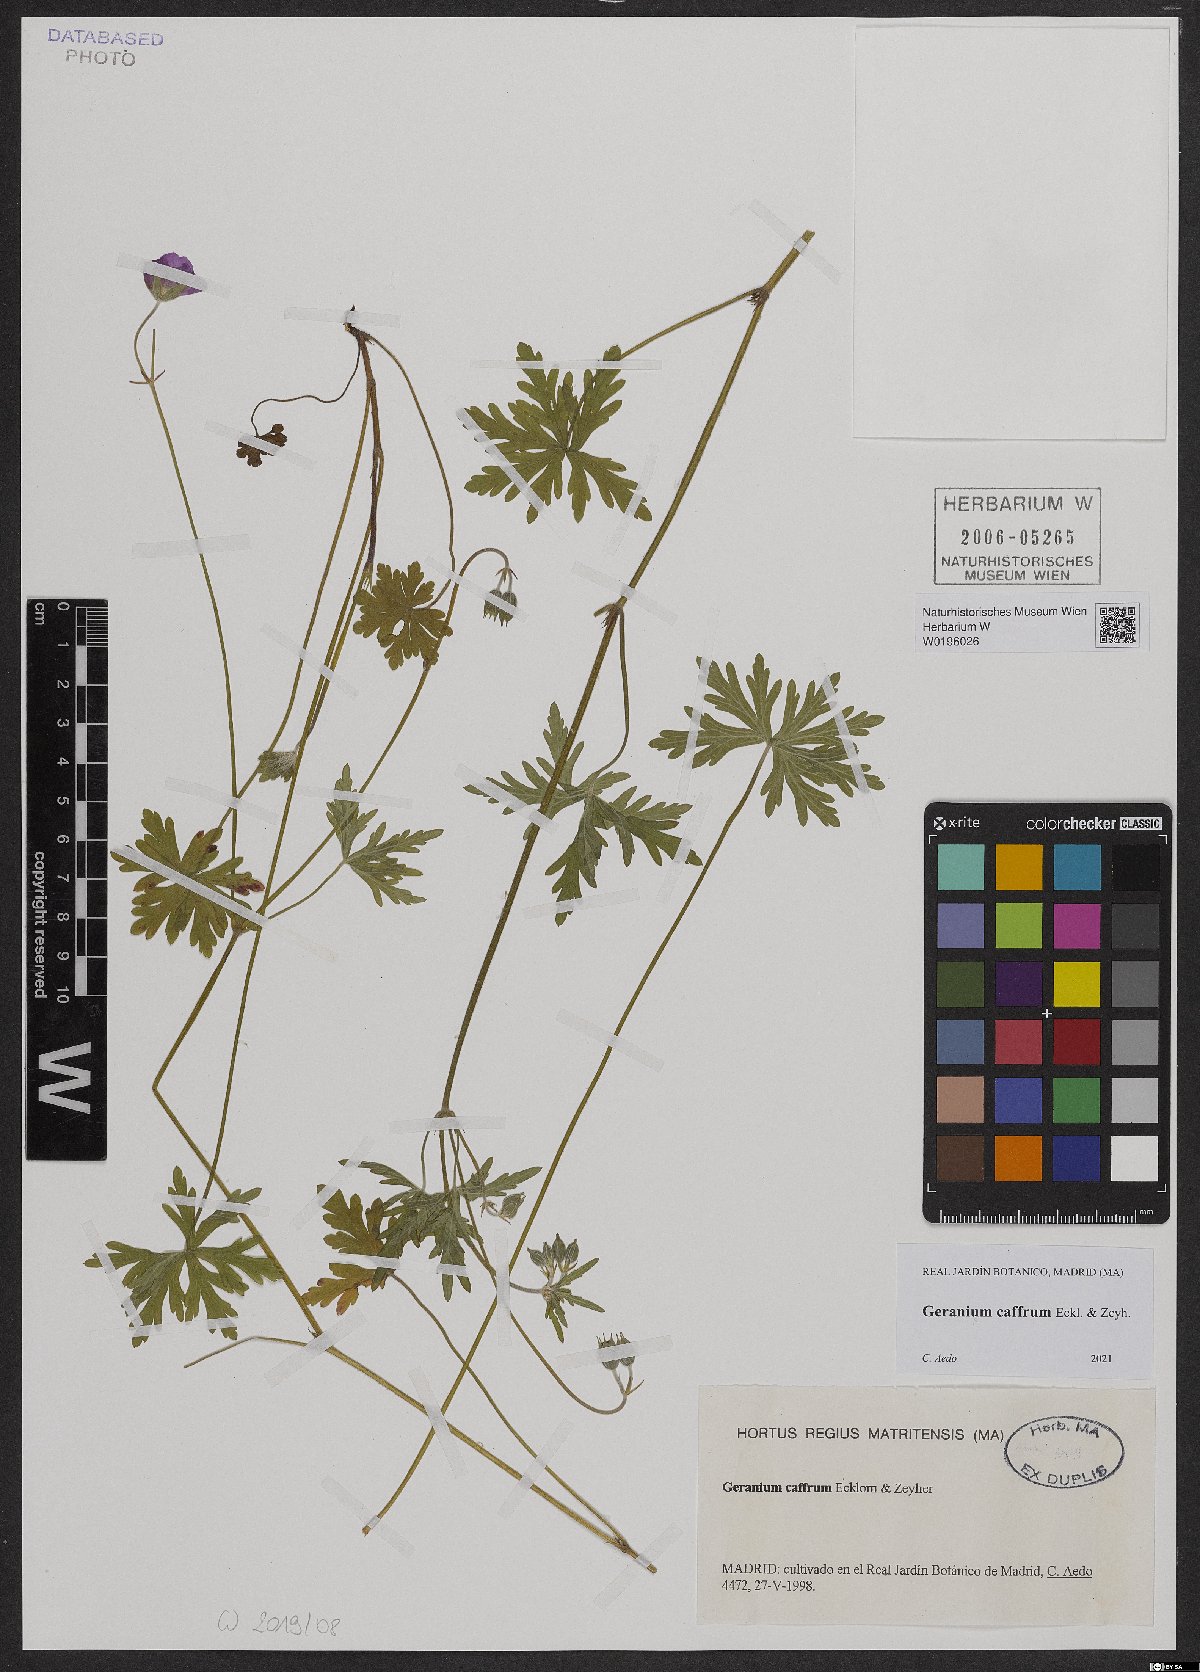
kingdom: Plantae
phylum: Tracheophyta
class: Magnoliopsida
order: Geraniales
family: Geraniaceae
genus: Geranium
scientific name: Geranium caffrum
